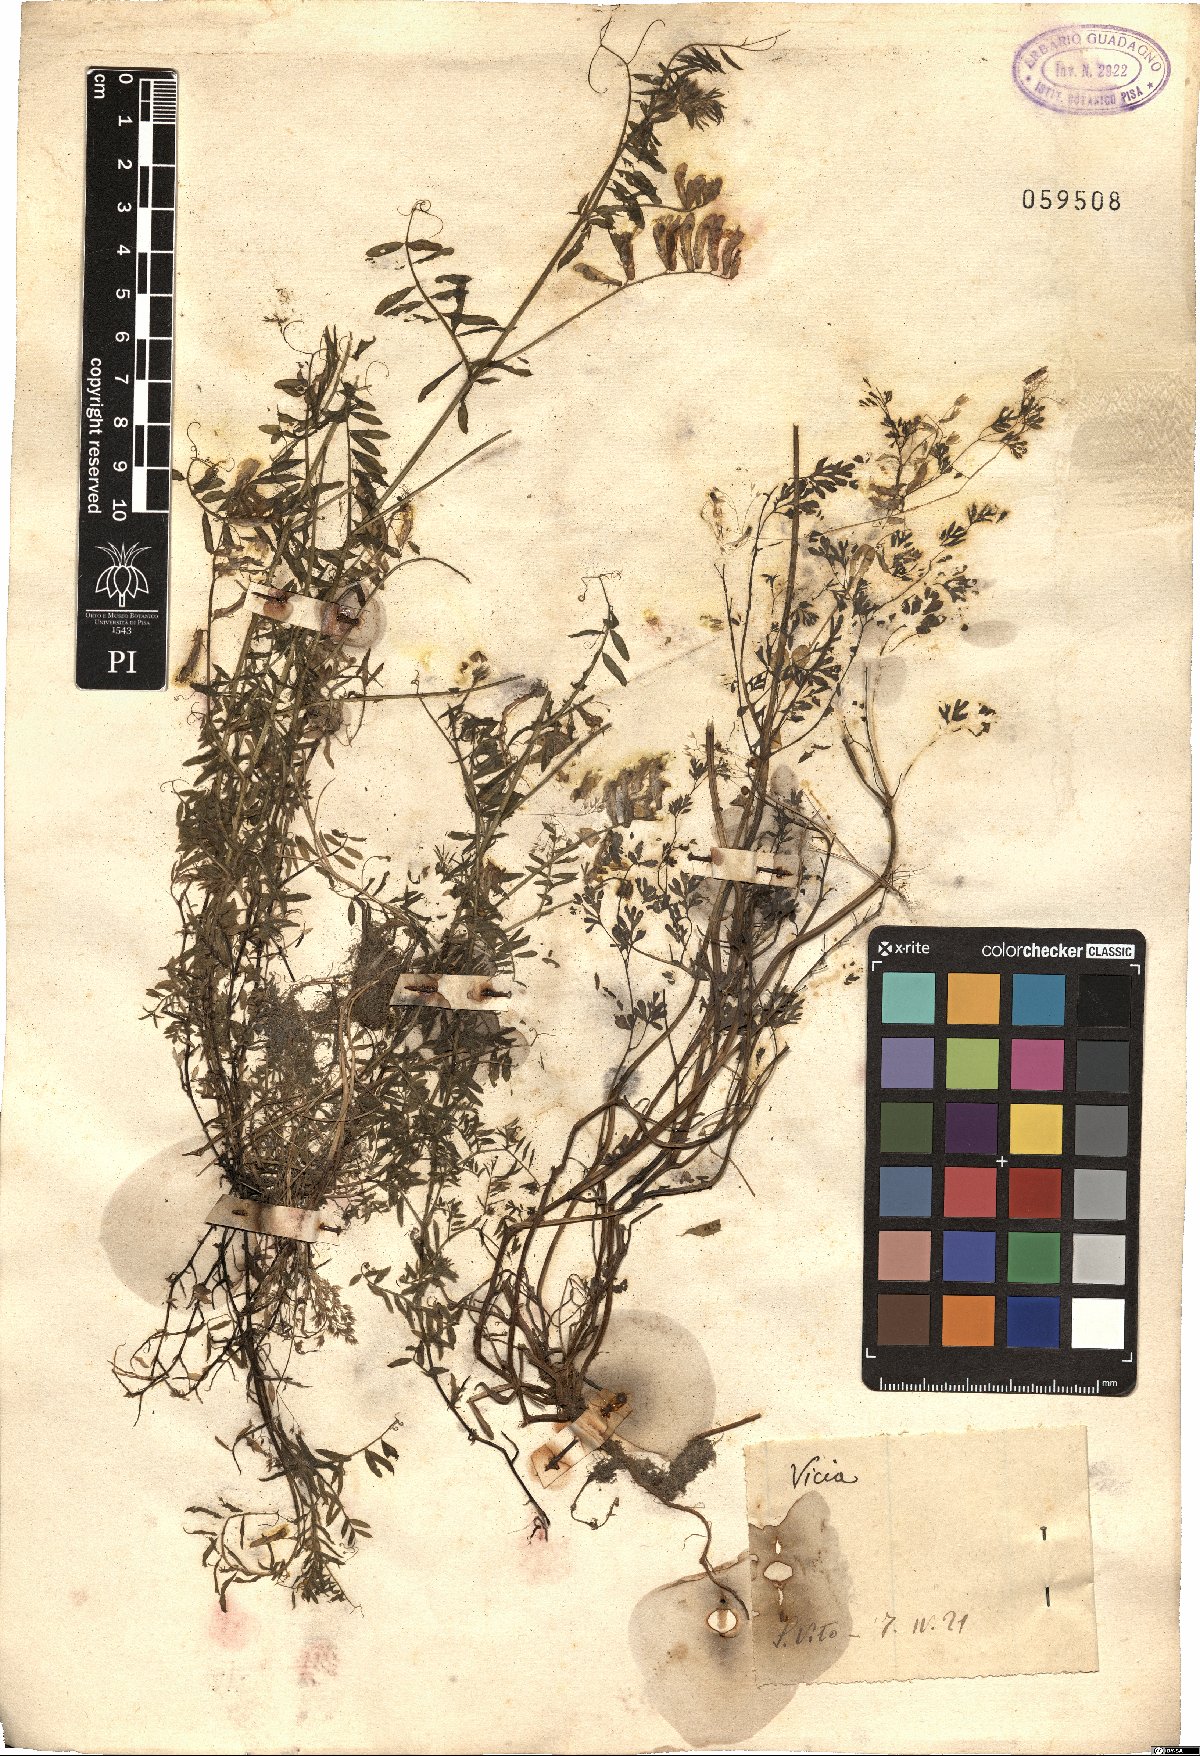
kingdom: Plantae
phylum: Tracheophyta
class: Magnoliopsida
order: Fabales
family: Fabaceae
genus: Vicia
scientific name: Vicia
